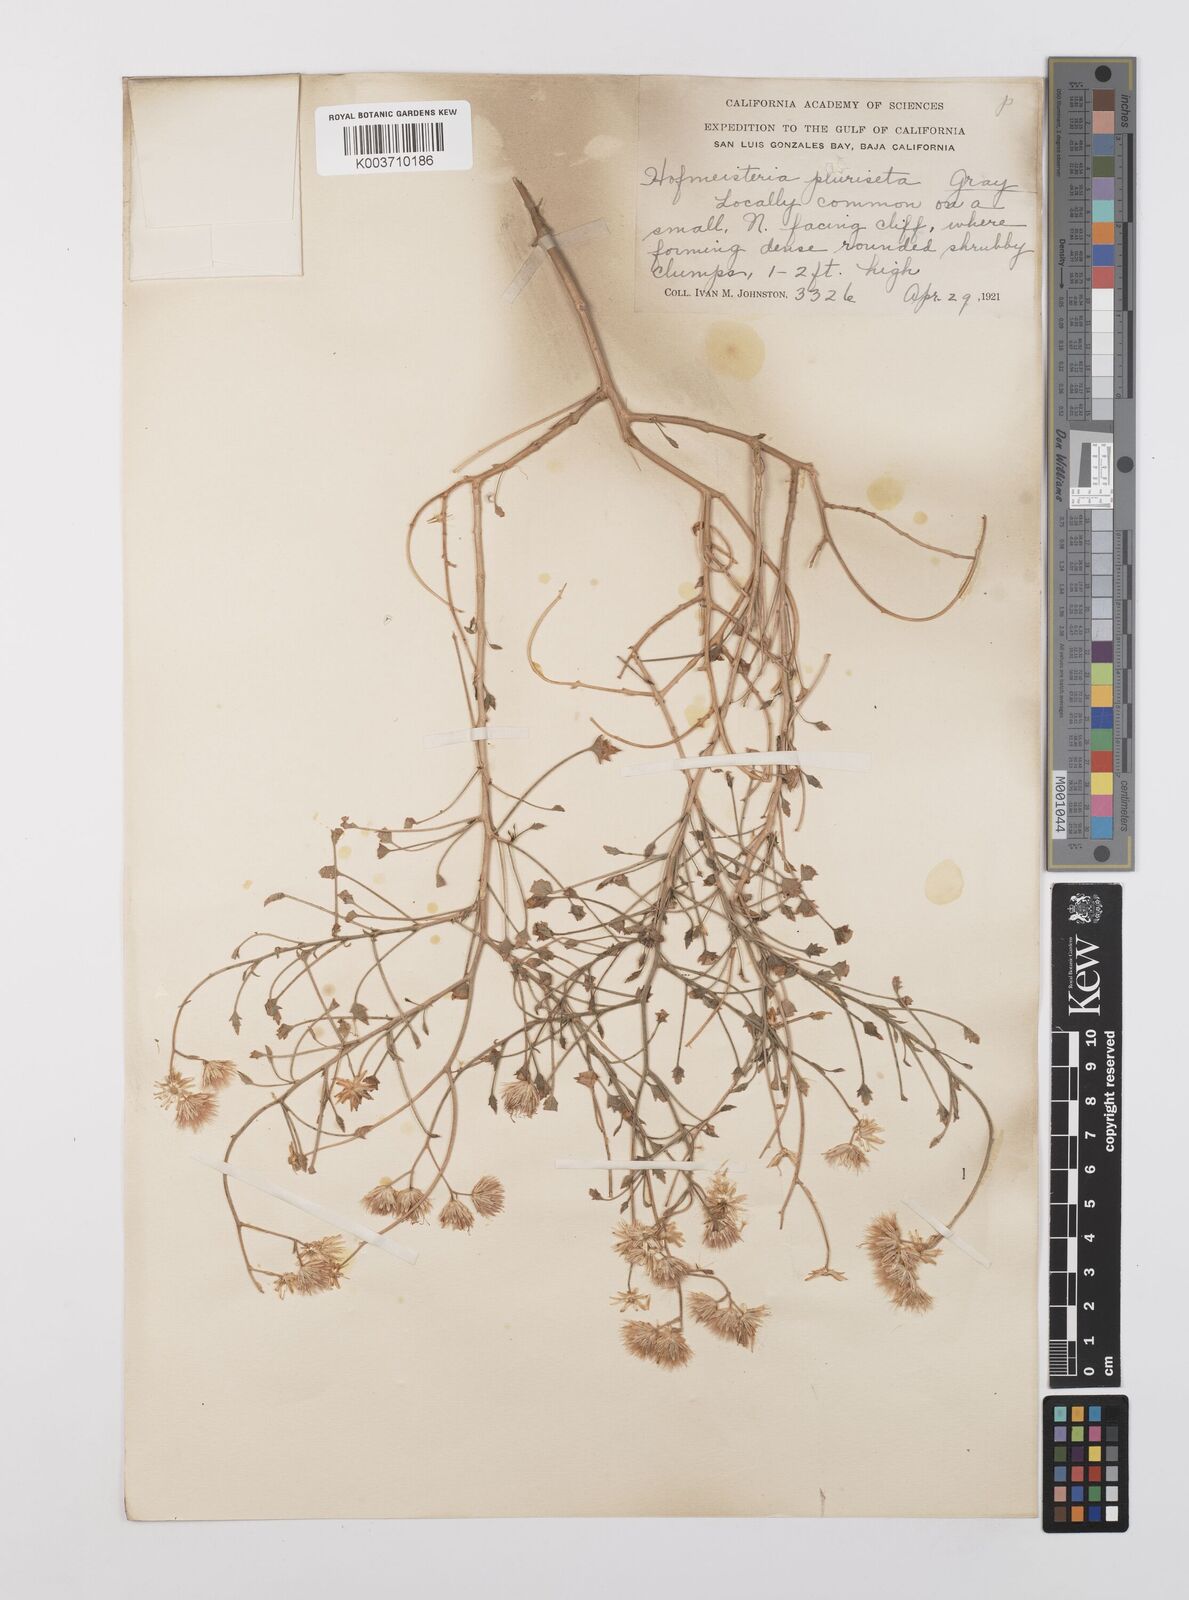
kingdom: Plantae
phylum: Tracheophyta
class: Magnoliopsida
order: Asterales
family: Asteraceae
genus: Pleurocoronis
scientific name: Pleurocoronis pluriseta
